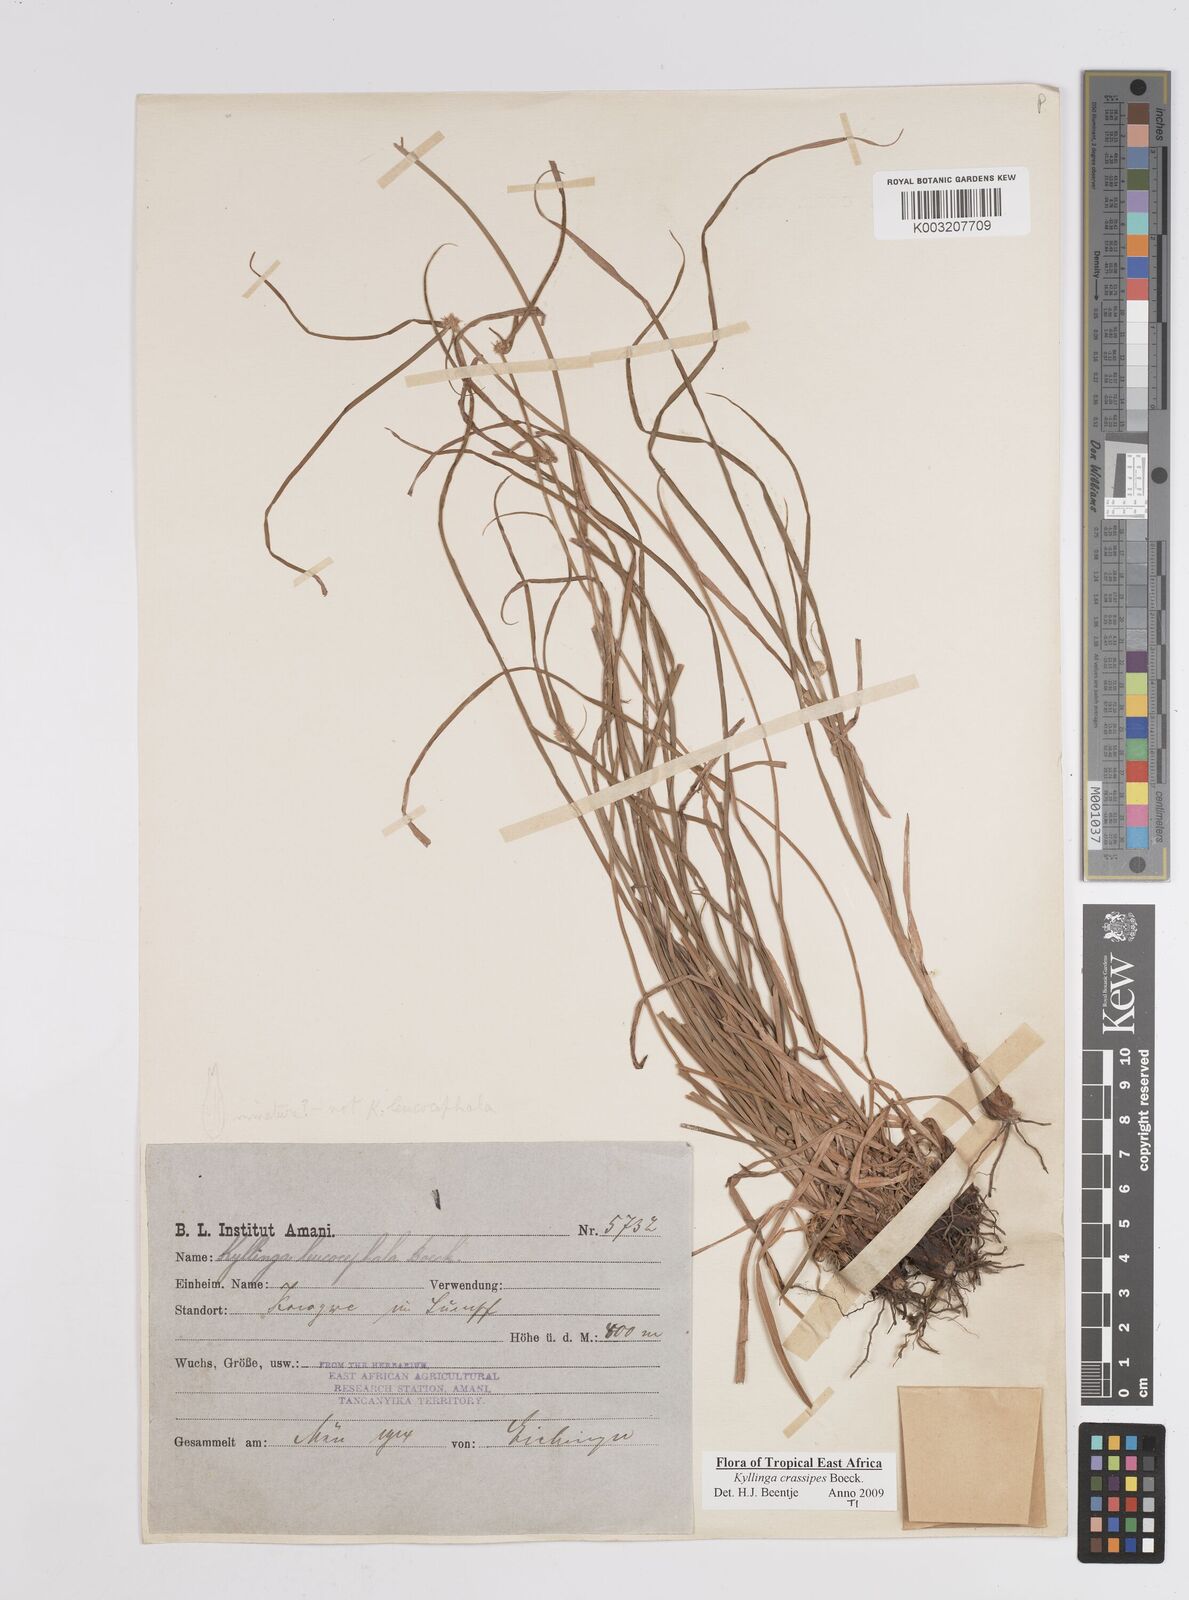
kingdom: Plantae
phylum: Tracheophyta
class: Liliopsida
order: Poales
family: Cyperaceae
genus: Cyperus
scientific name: Cyperus
